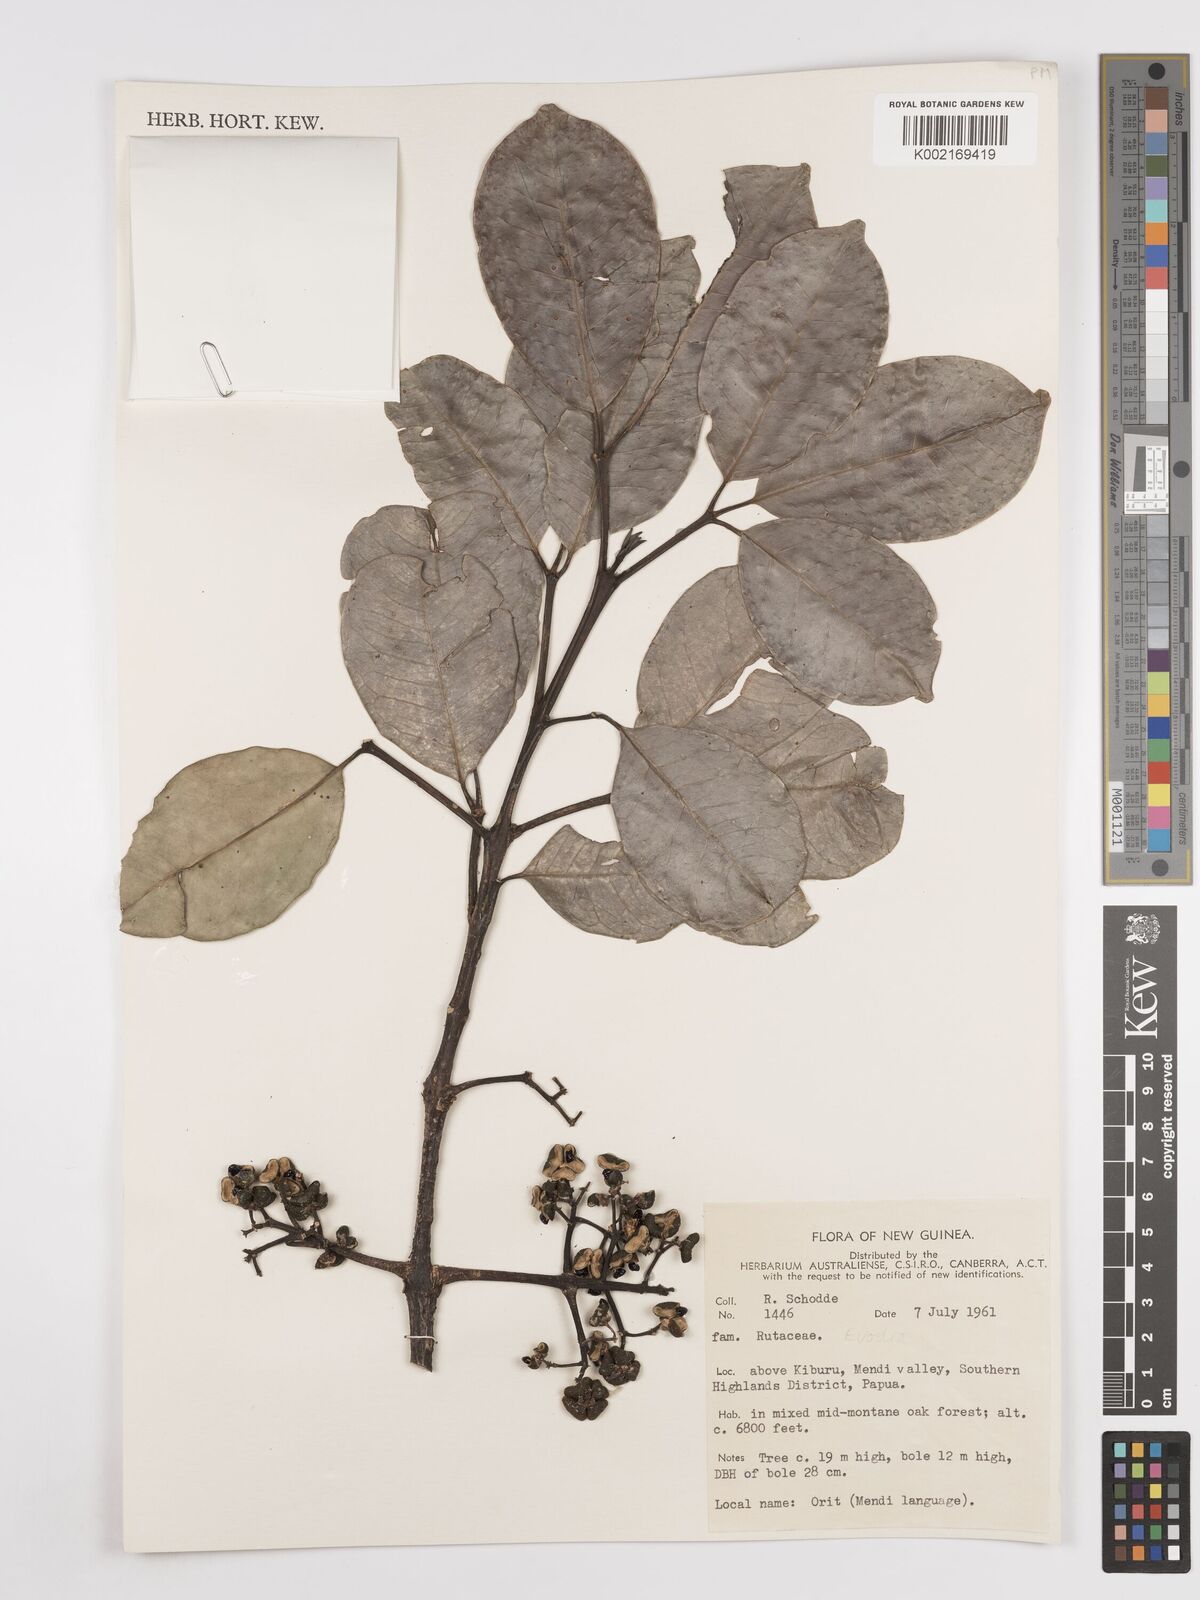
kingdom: Plantae
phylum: Tracheophyta
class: Magnoliopsida
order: Sapindales
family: Rutaceae
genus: Euodia
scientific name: Euodia
